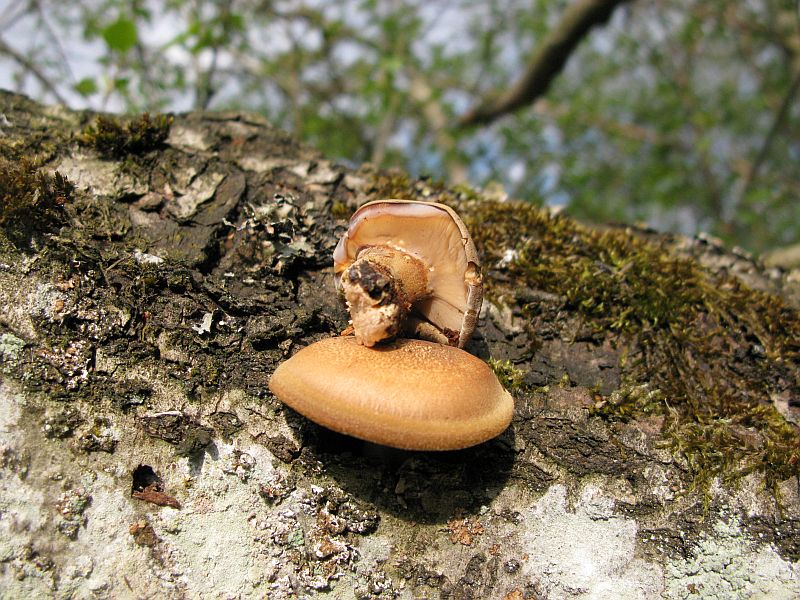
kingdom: Fungi
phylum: Basidiomycota
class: Agaricomycetes
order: Polyporales
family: Polyporaceae
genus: Lentinus
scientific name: Lentinus substrictus
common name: forårs-stilkporesvamp
